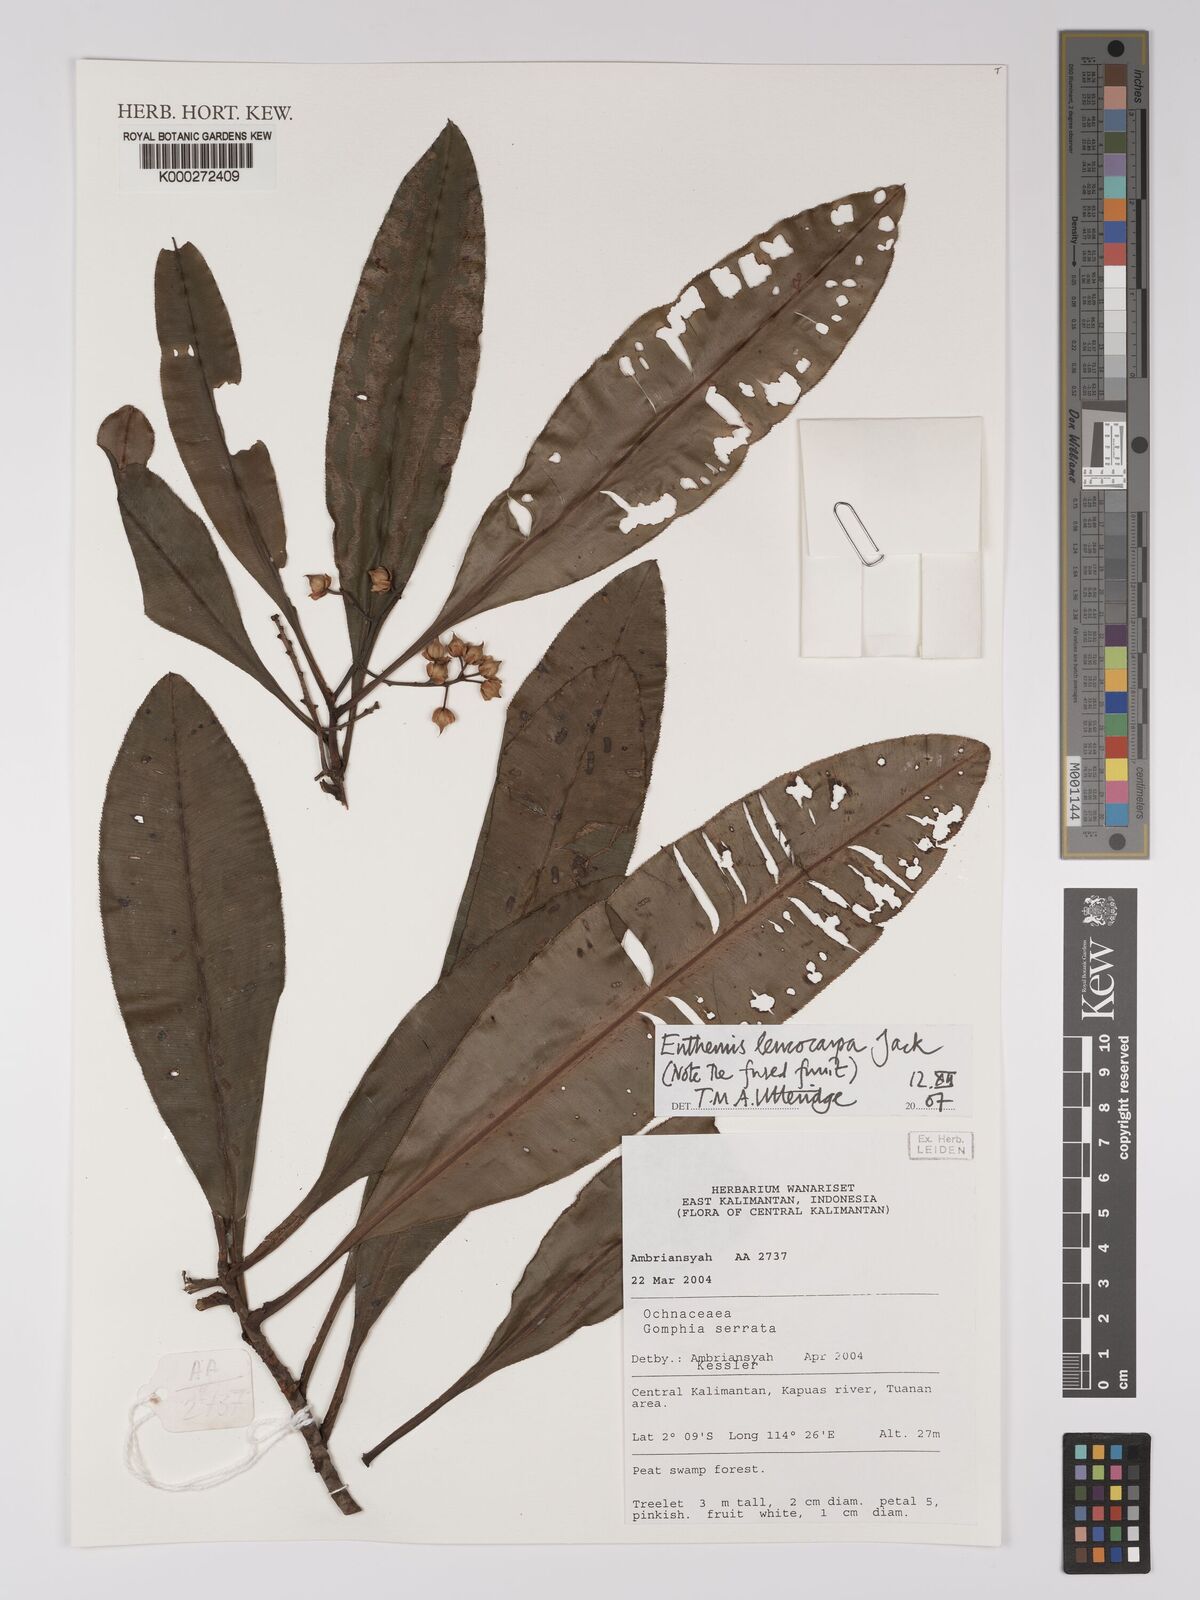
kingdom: Plantae
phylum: Tracheophyta
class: Magnoliopsida
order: Malpighiales
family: Ochnaceae
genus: Euthemis
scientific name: Euthemis leucocarpa
